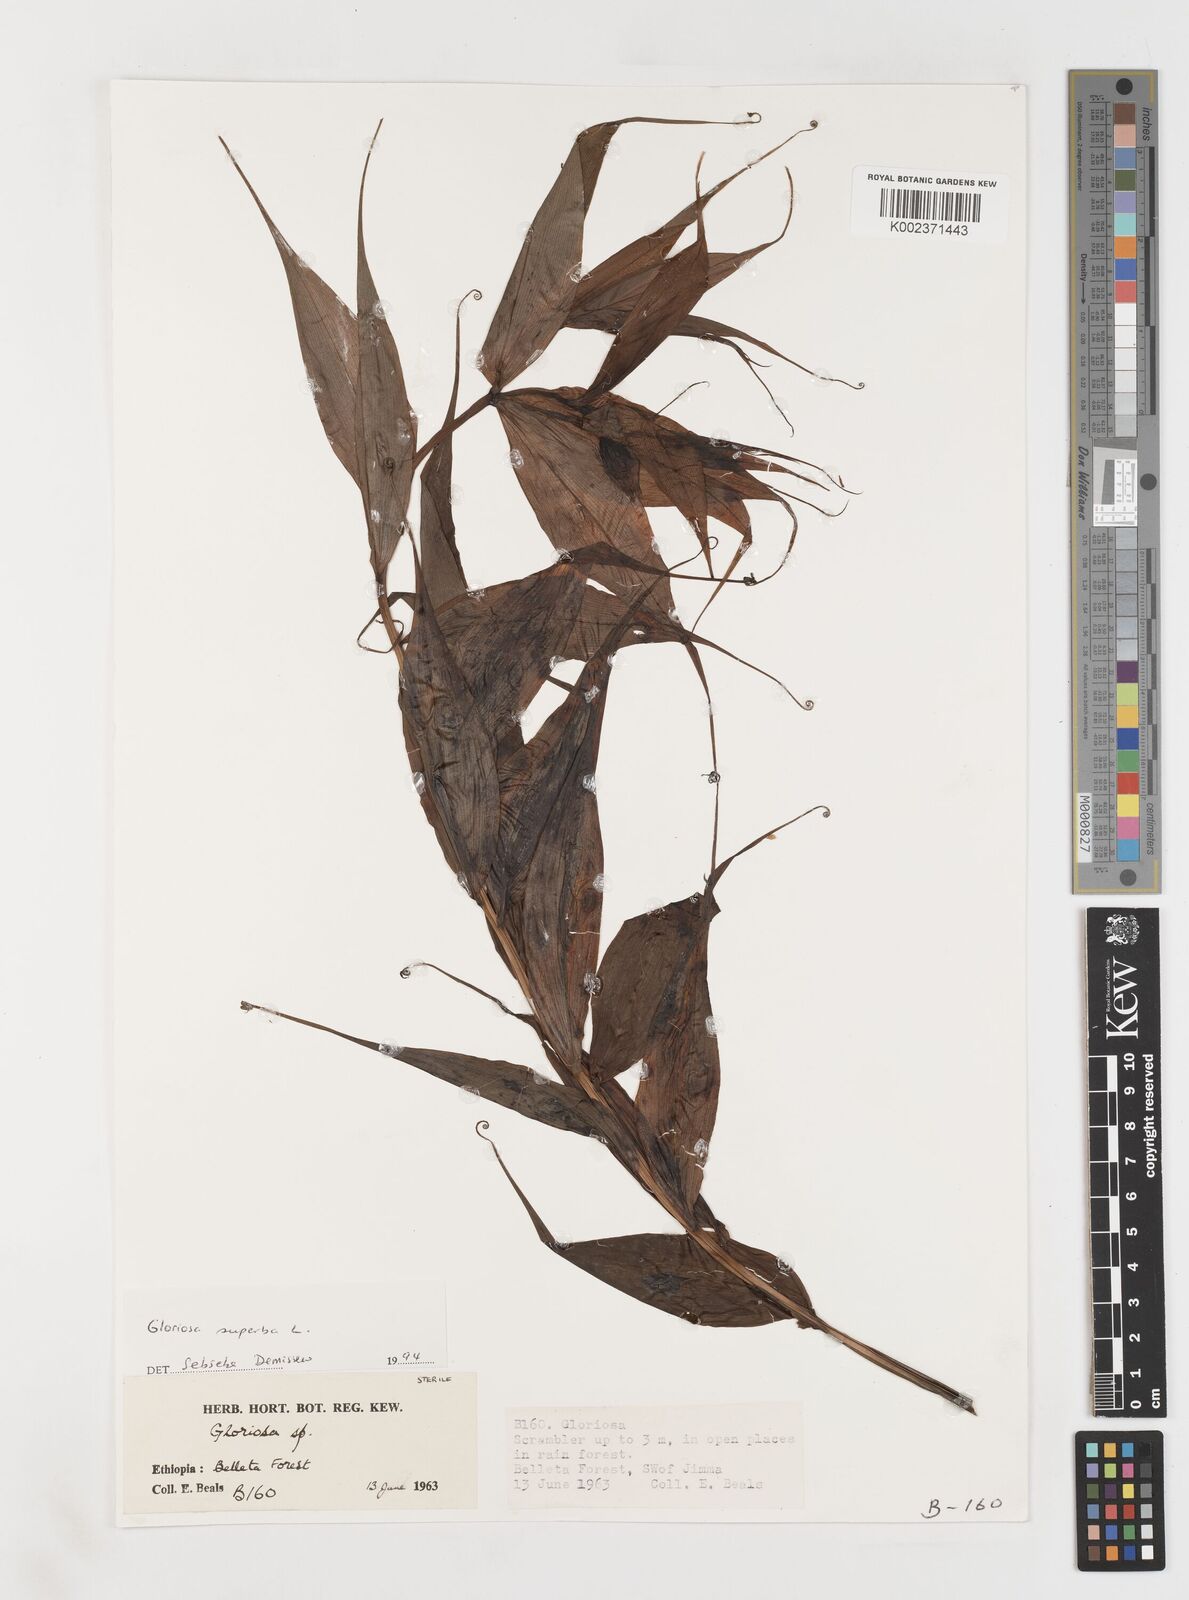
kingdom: Plantae
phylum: Tracheophyta
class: Liliopsida
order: Liliales
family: Colchicaceae
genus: Gloriosa
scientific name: Gloriosa simplex
